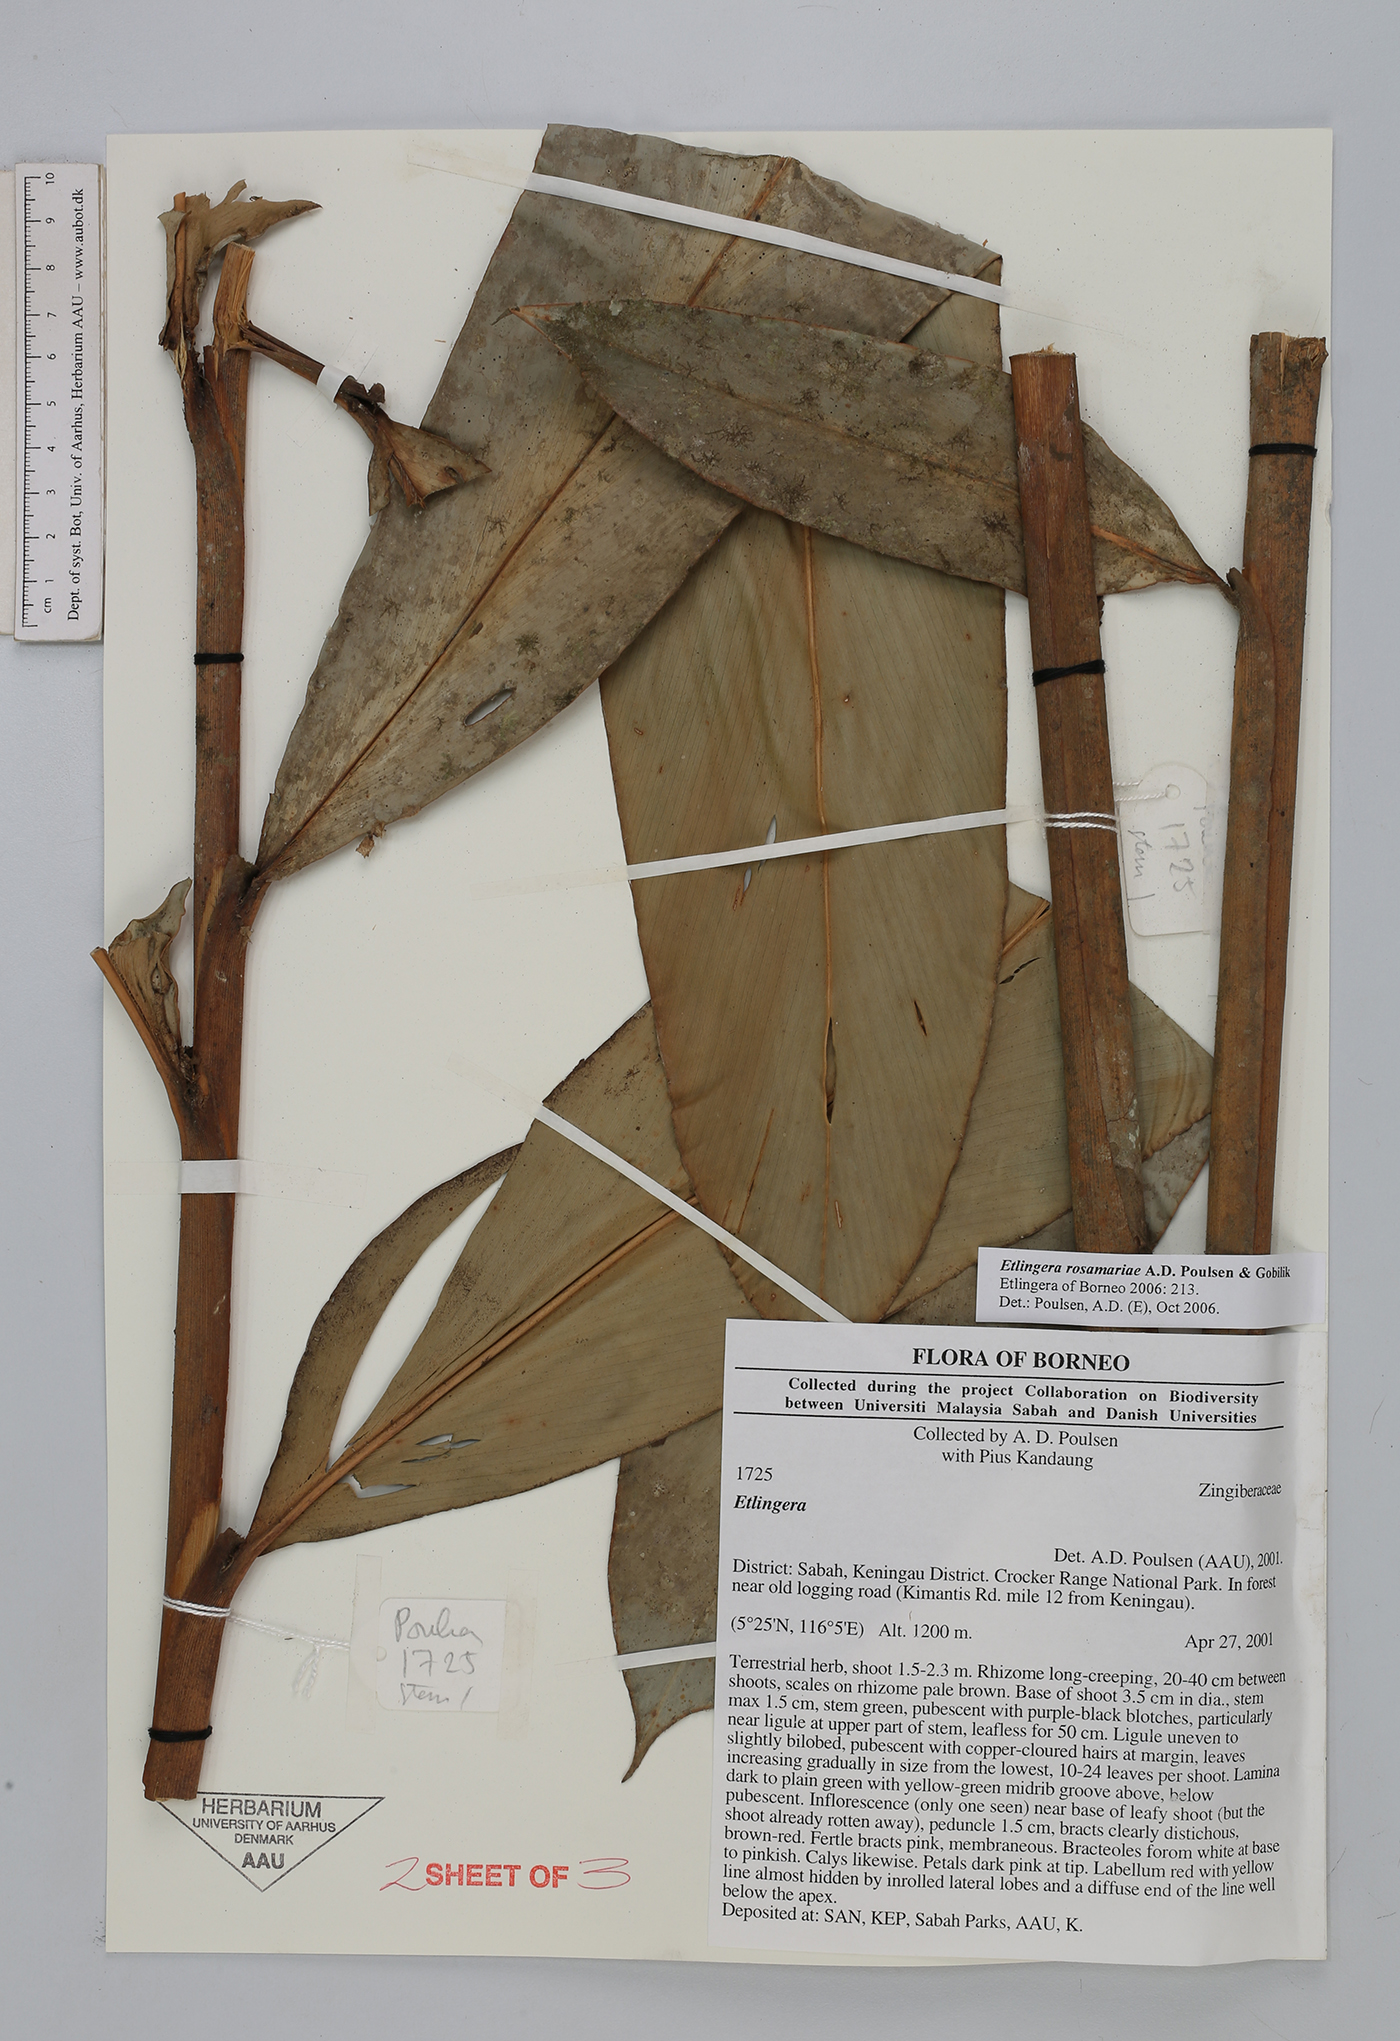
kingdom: Plantae
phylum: Tracheophyta
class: Liliopsida
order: Zingiberales
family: Zingiberaceae
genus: Etlingera
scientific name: Etlingera rosamariae
